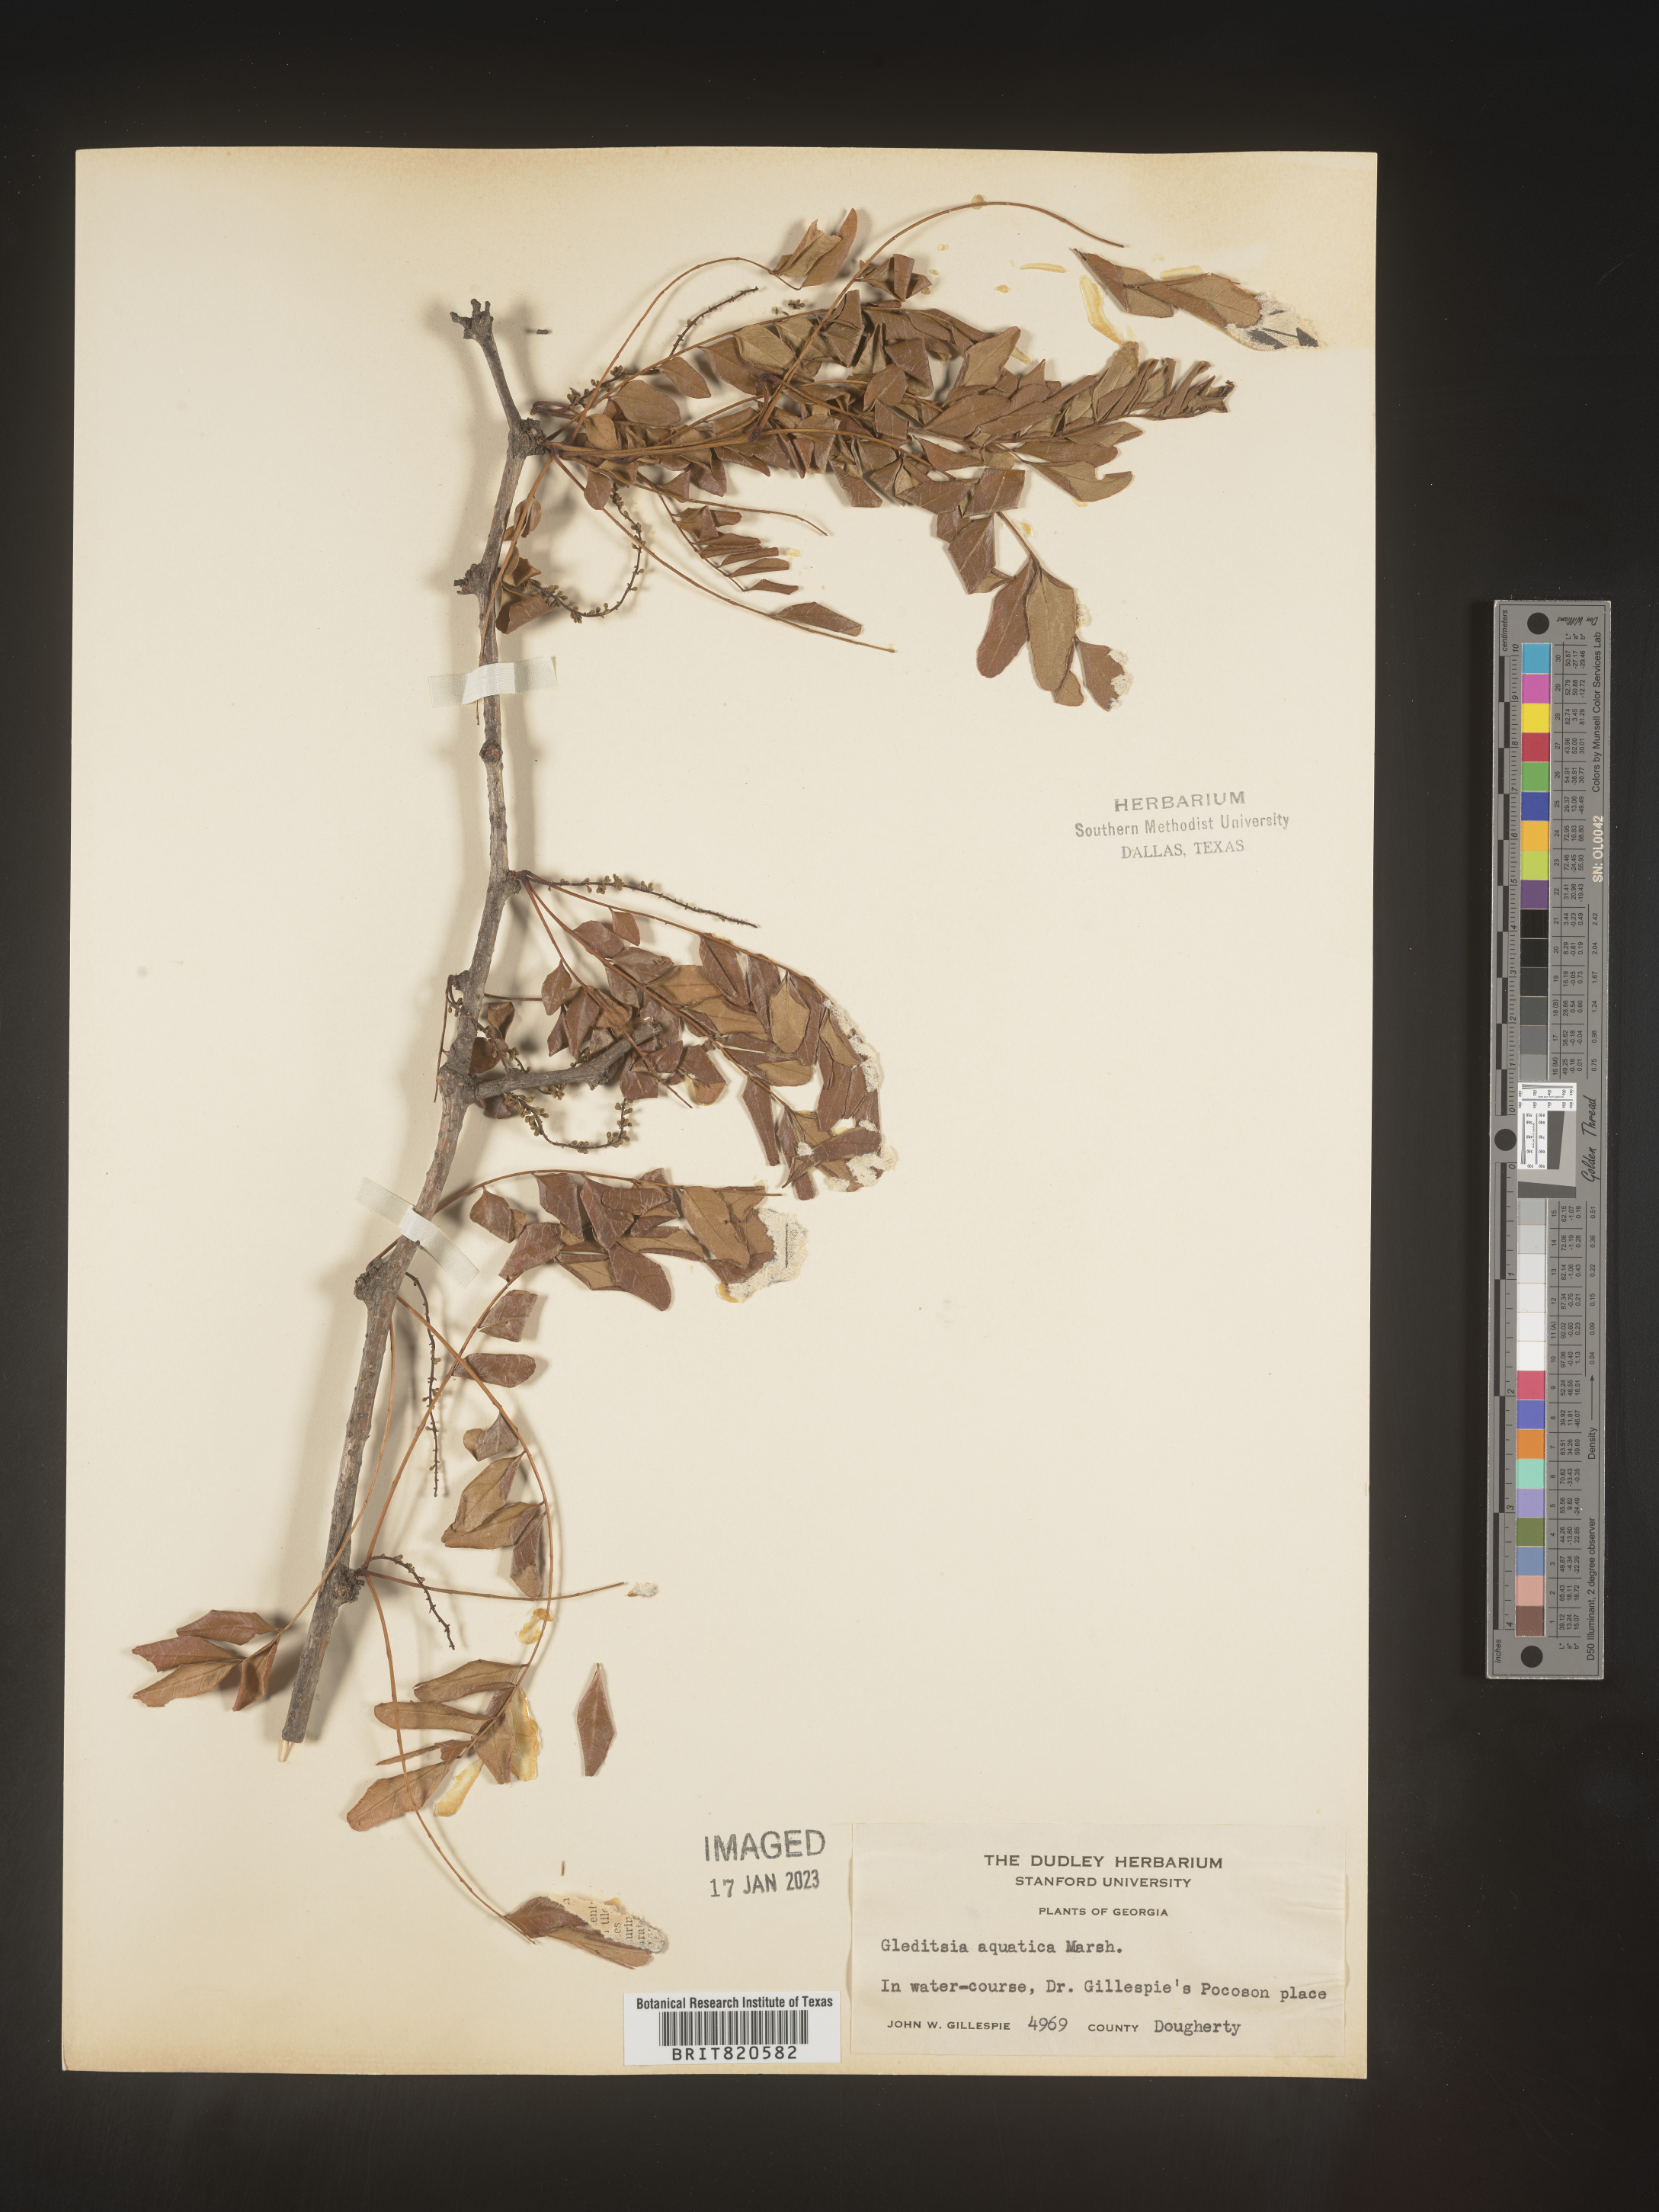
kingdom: Plantae
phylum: Tracheophyta
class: Magnoliopsida
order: Fabales
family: Fabaceae
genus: Gleditsia
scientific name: Gleditsia aquatica
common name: Swamp-locust
